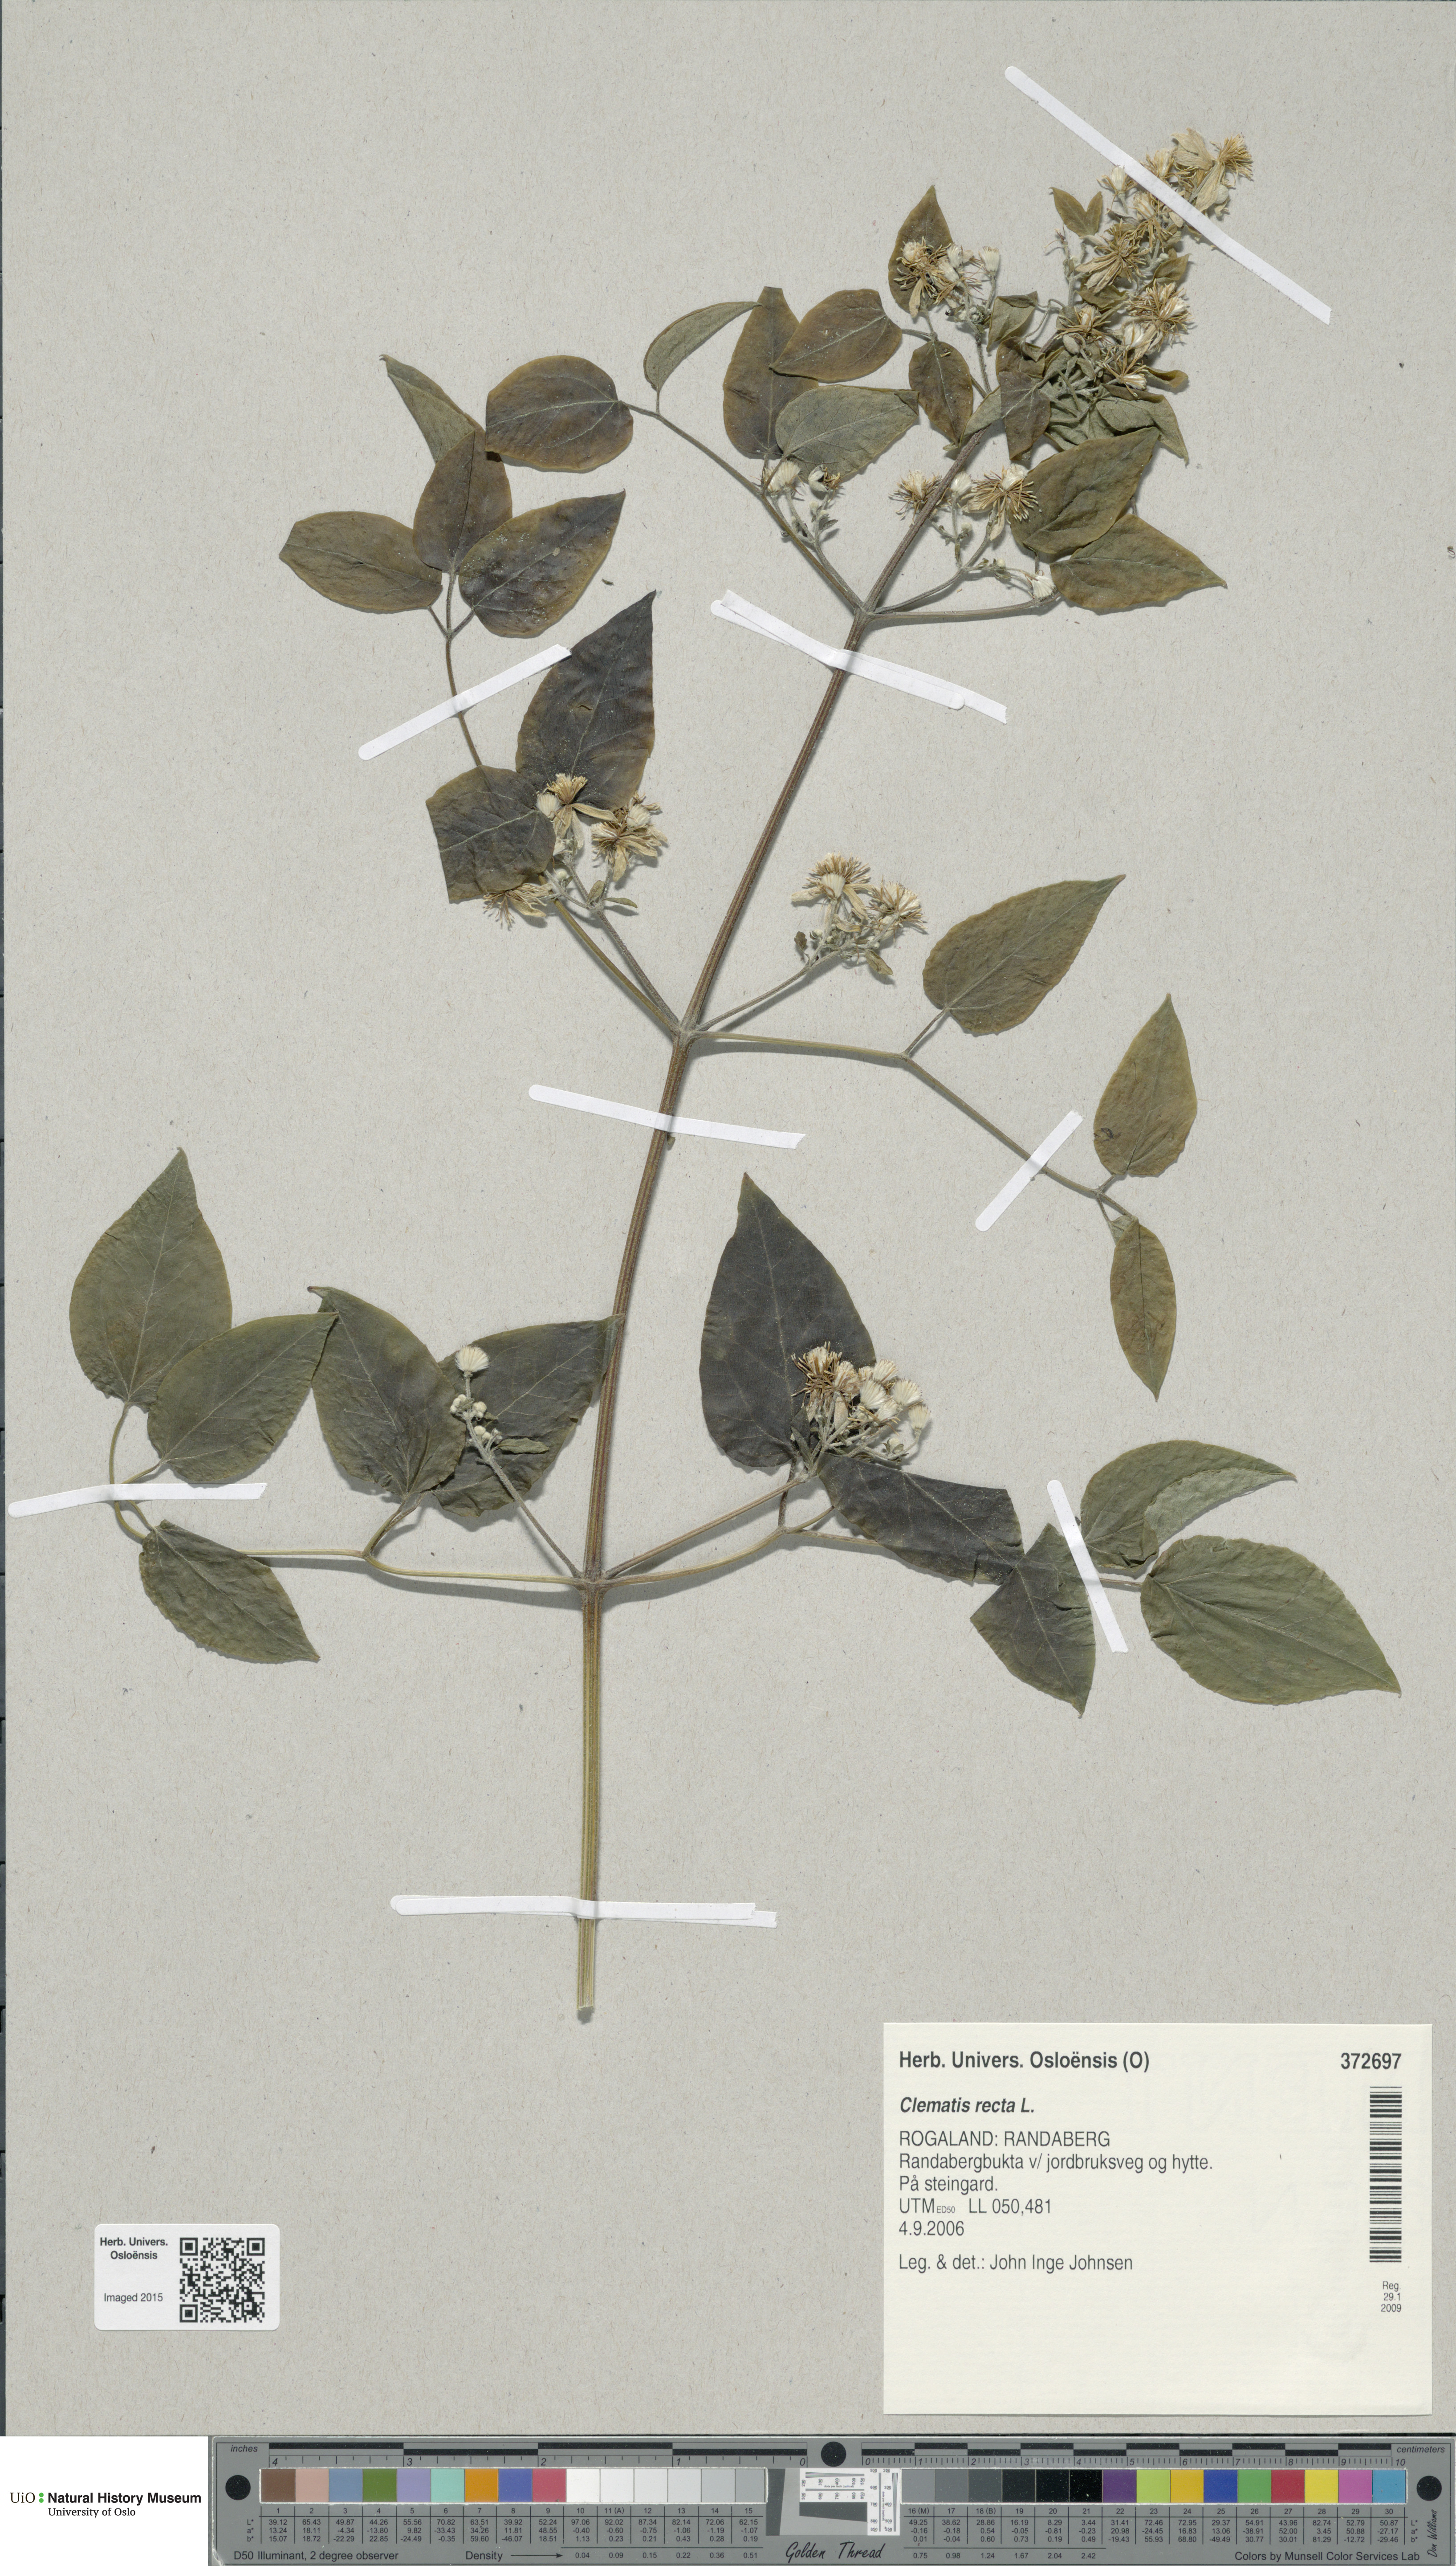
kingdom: Plantae
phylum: Tracheophyta
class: Magnoliopsida
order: Ranunculales
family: Ranunculaceae
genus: Clematis
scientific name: Clematis recta
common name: Ground clematis
